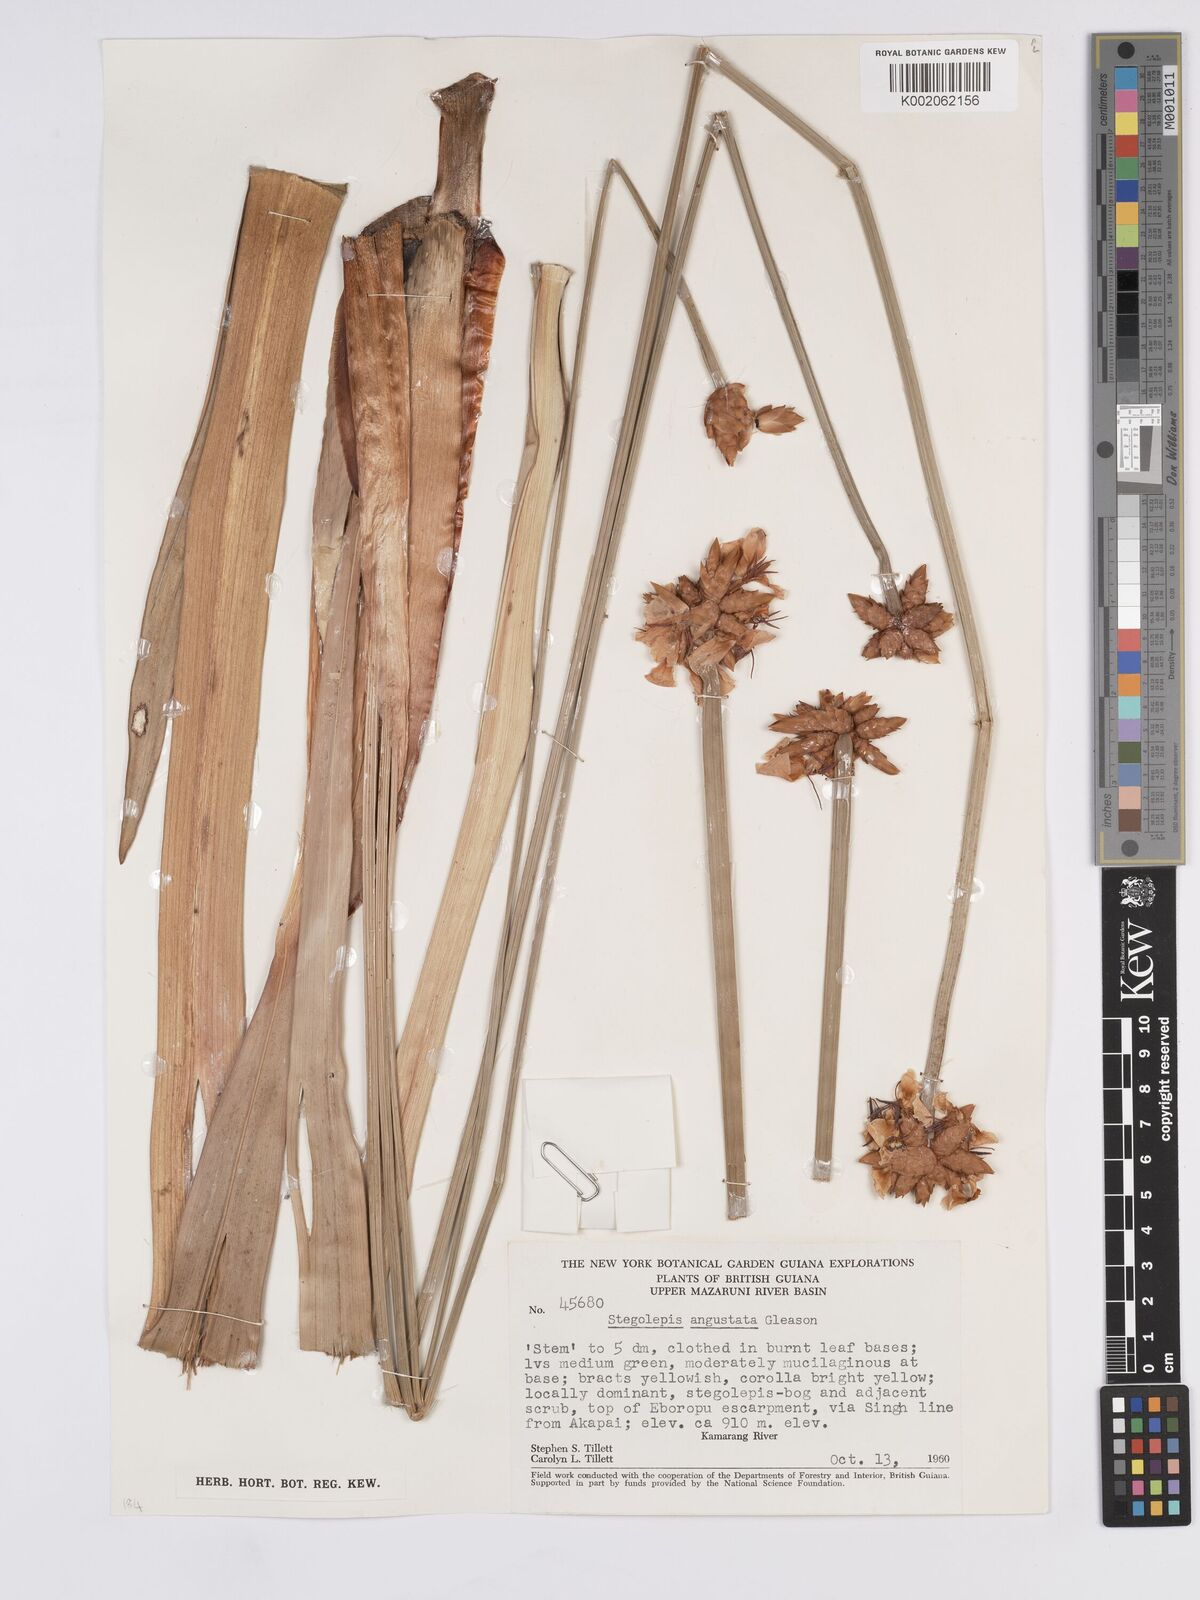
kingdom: Plantae
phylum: Tracheophyta
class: Liliopsida
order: Poales
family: Rapateaceae
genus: Stegolepis
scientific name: Stegolepis angustata
